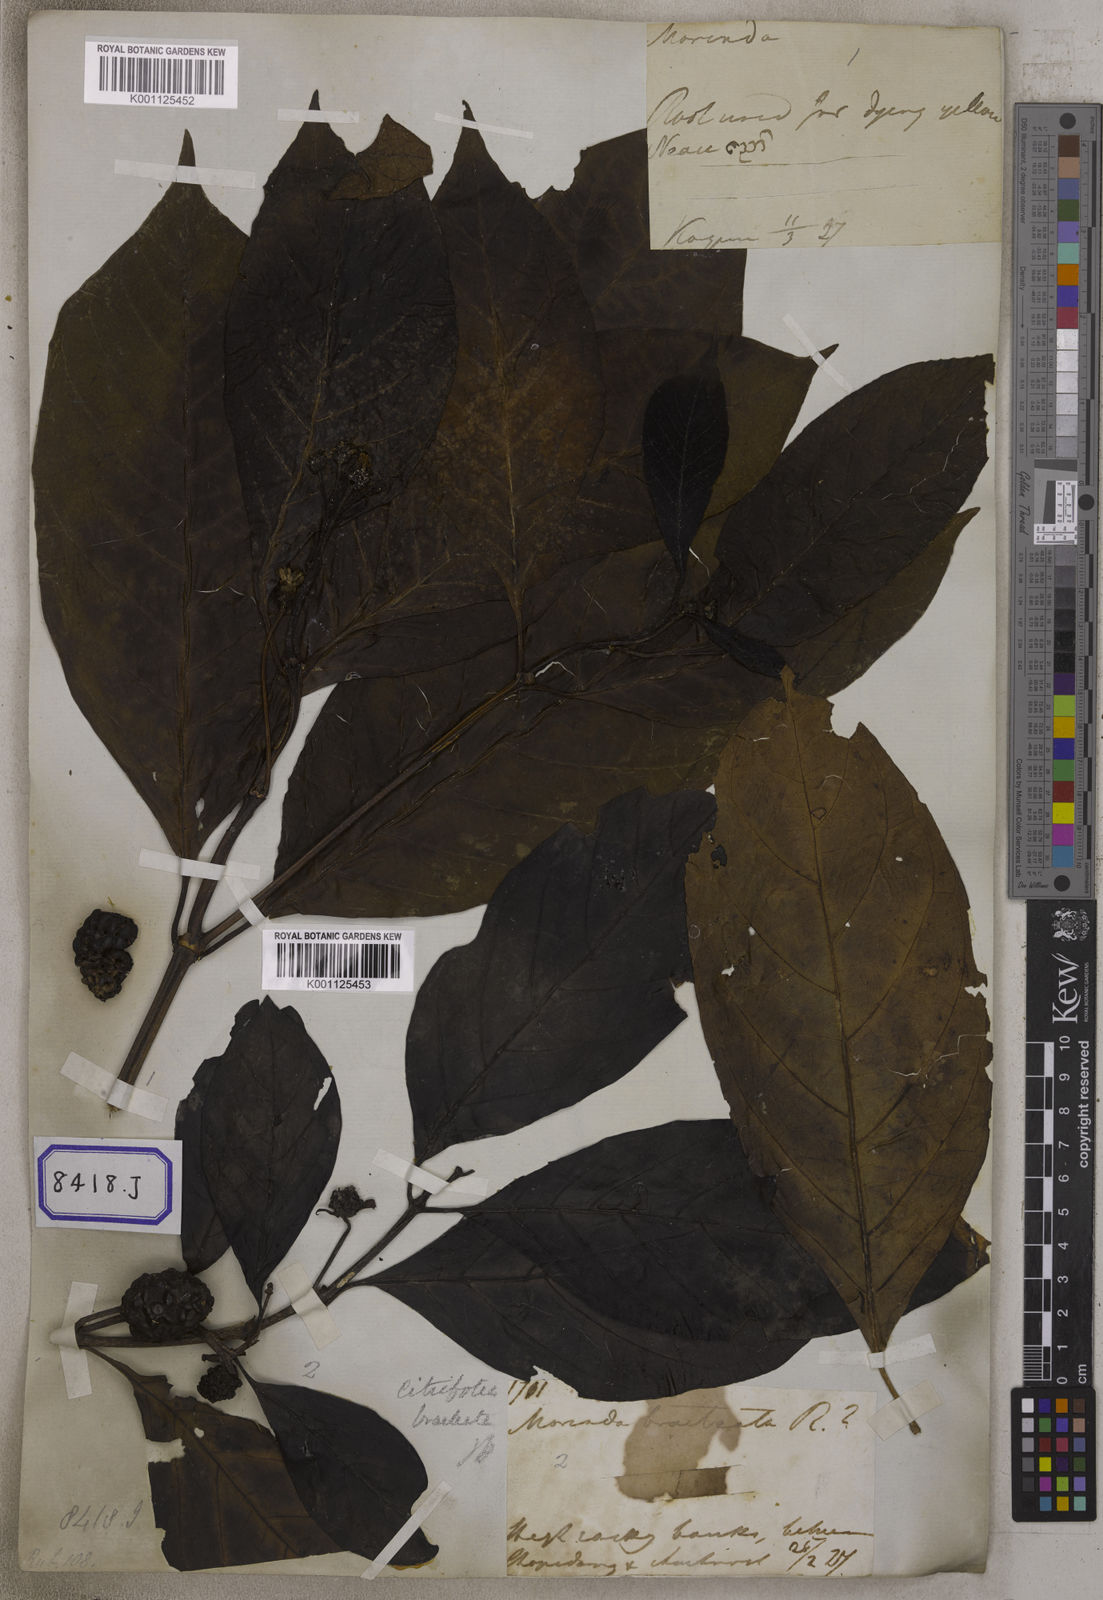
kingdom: Plantae
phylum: Tracheophyta
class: Magnoliopsida
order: Gentianales
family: Rubiaceae
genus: Morinda
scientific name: Morinda citrifolia
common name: Indian-mulberry
